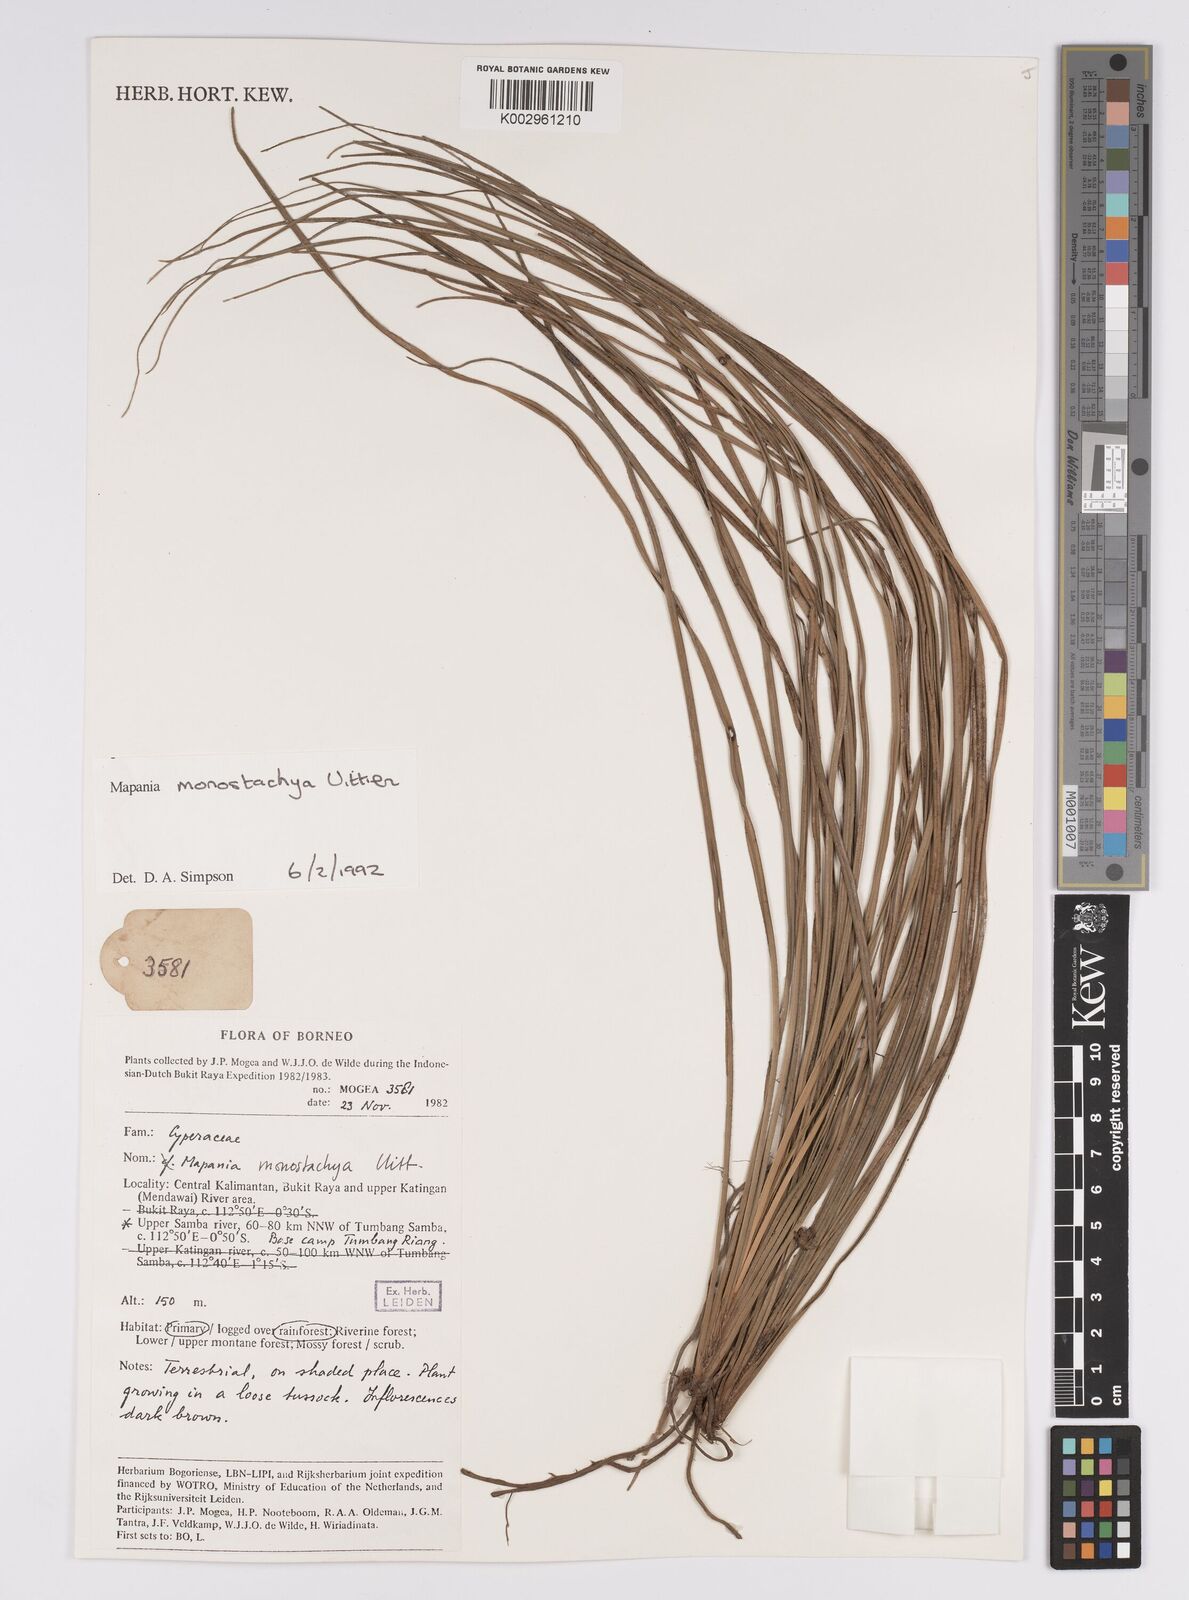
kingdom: Plantae
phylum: Tracheophyta
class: Liliopsida
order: Poales
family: Cyperaceae
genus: Mapania
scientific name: Mapania monostachya
